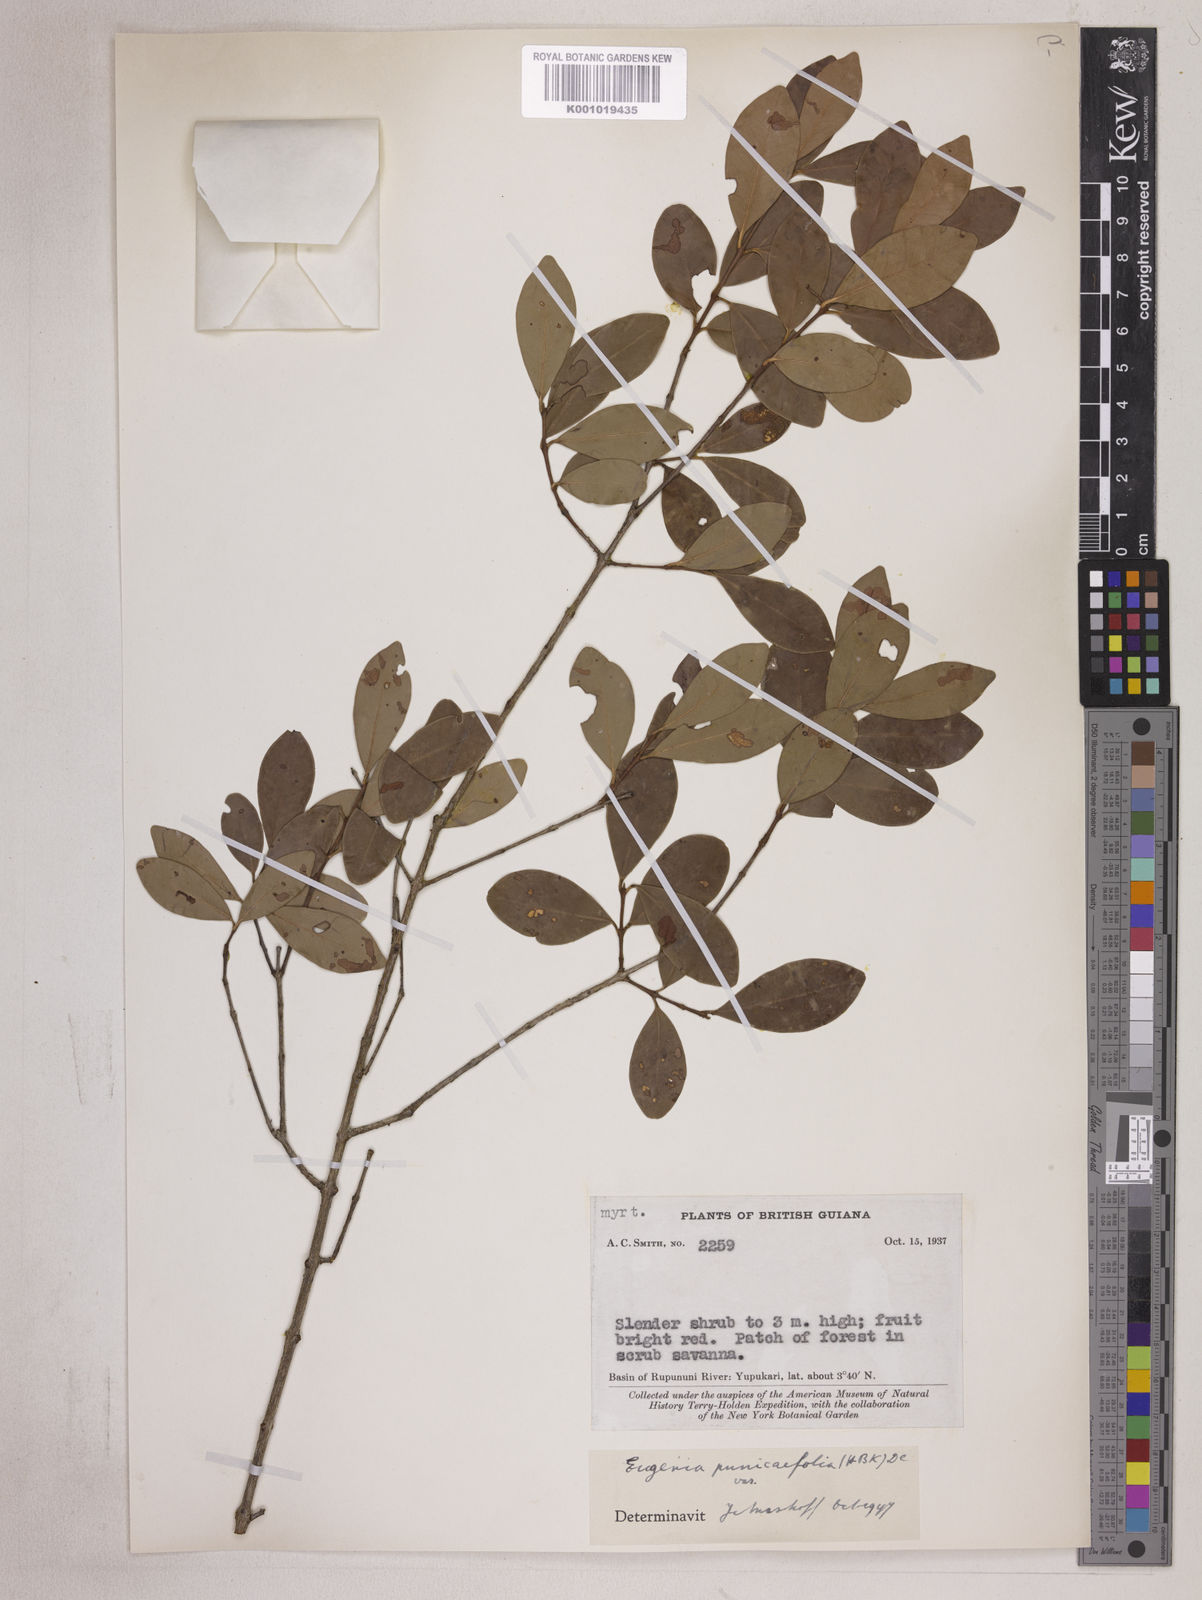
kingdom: Plantae
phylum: Tracheophyta
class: Magnoliopsida
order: Myrtales
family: Myrtaceae
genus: Eugenia
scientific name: Eugenia punicifolia
